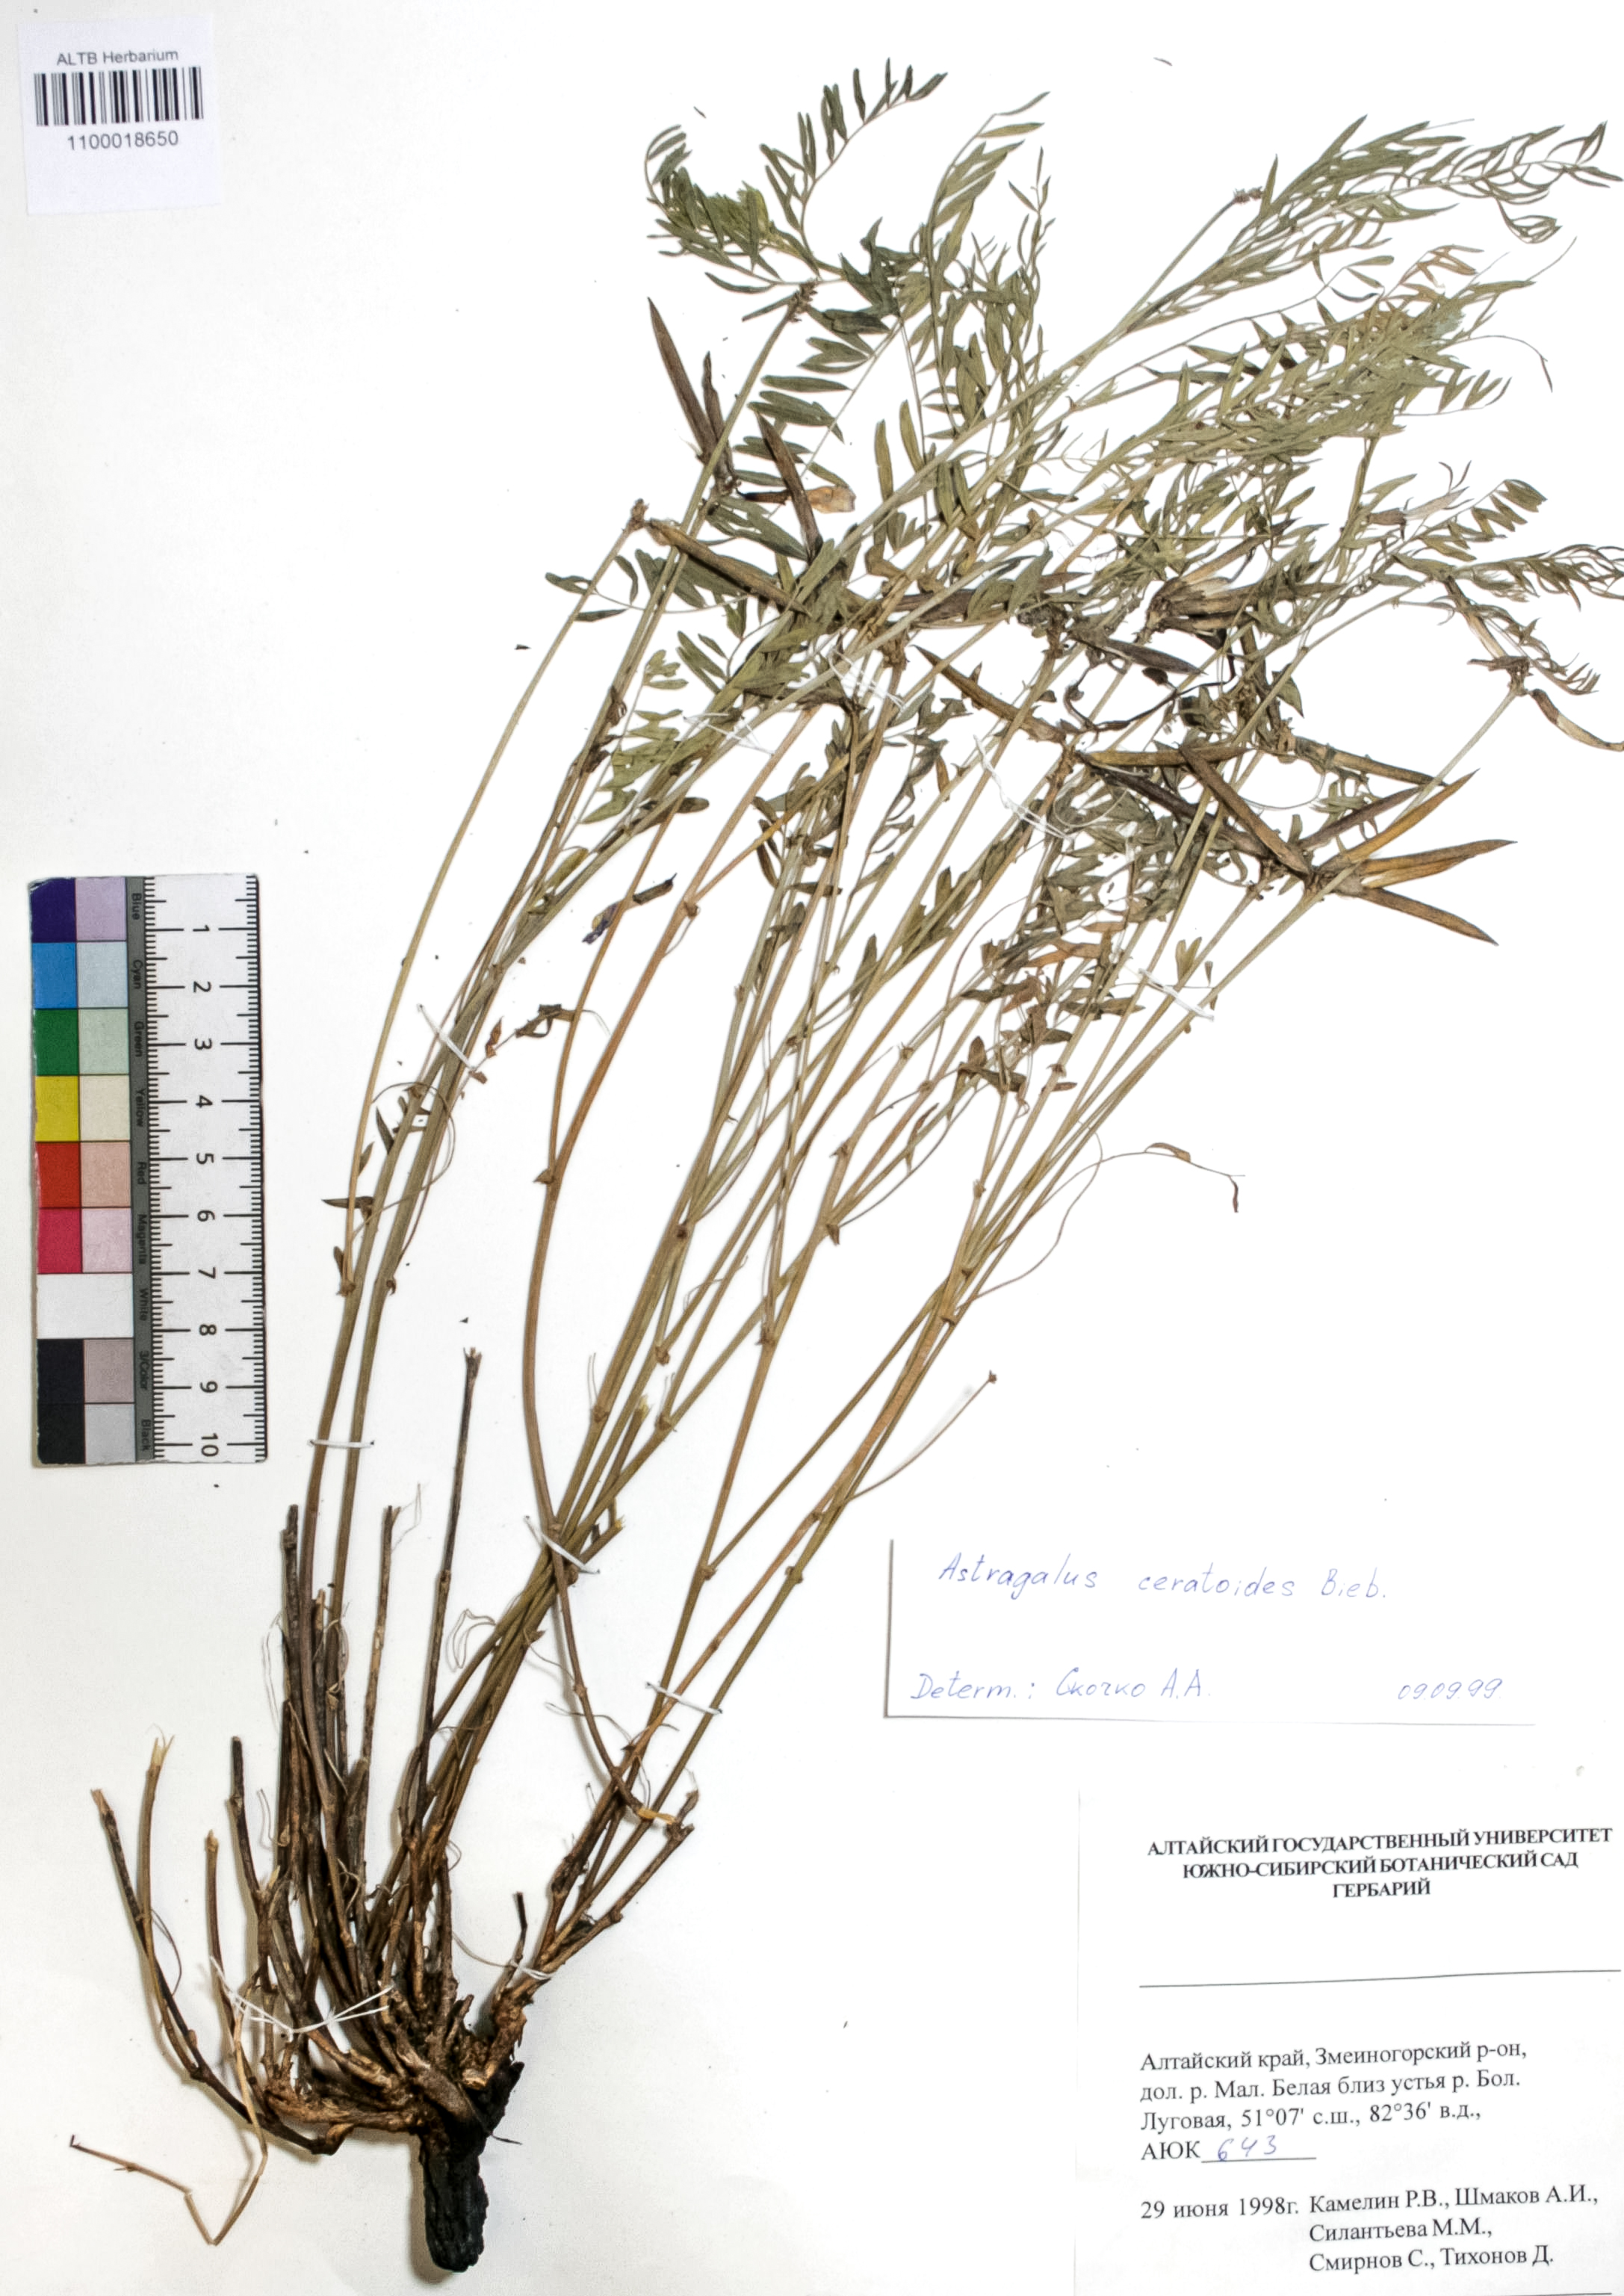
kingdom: Plantae
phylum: Tracheophyta
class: Magnoliopsida
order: Fabales
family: Fabaceae
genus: Astragalus
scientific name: Astragalus ceratoides
